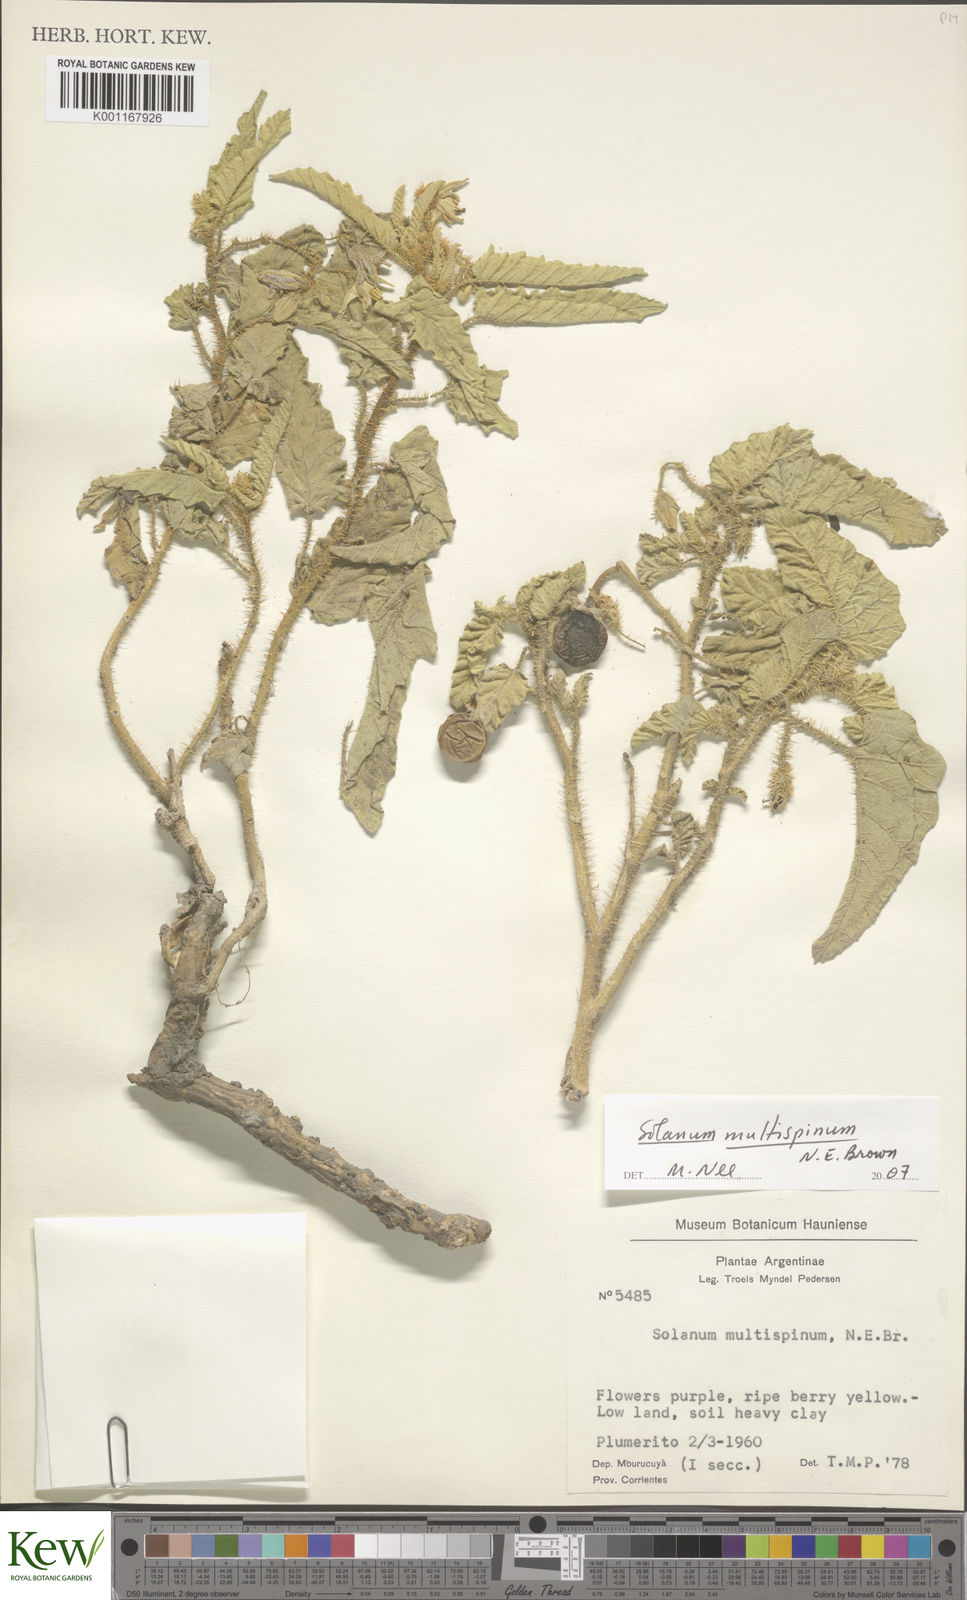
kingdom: Plantae
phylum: Tracheophyta
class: Magnoliopsida
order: Solanales
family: Solanaceae
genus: Solanum
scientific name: Solanum multispinum
